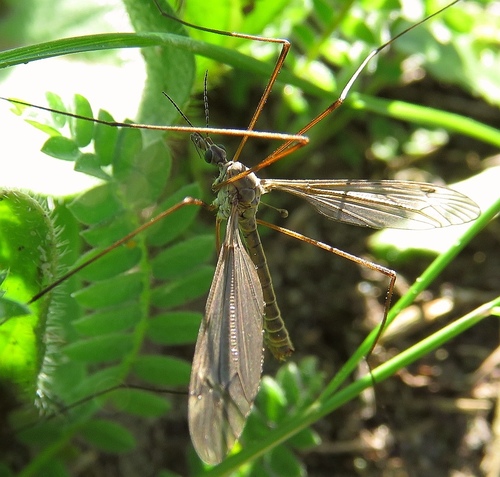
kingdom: Animalia
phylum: Arthropoda
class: Insecta
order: Diptera
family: Tipulidae
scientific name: Tipulidae
